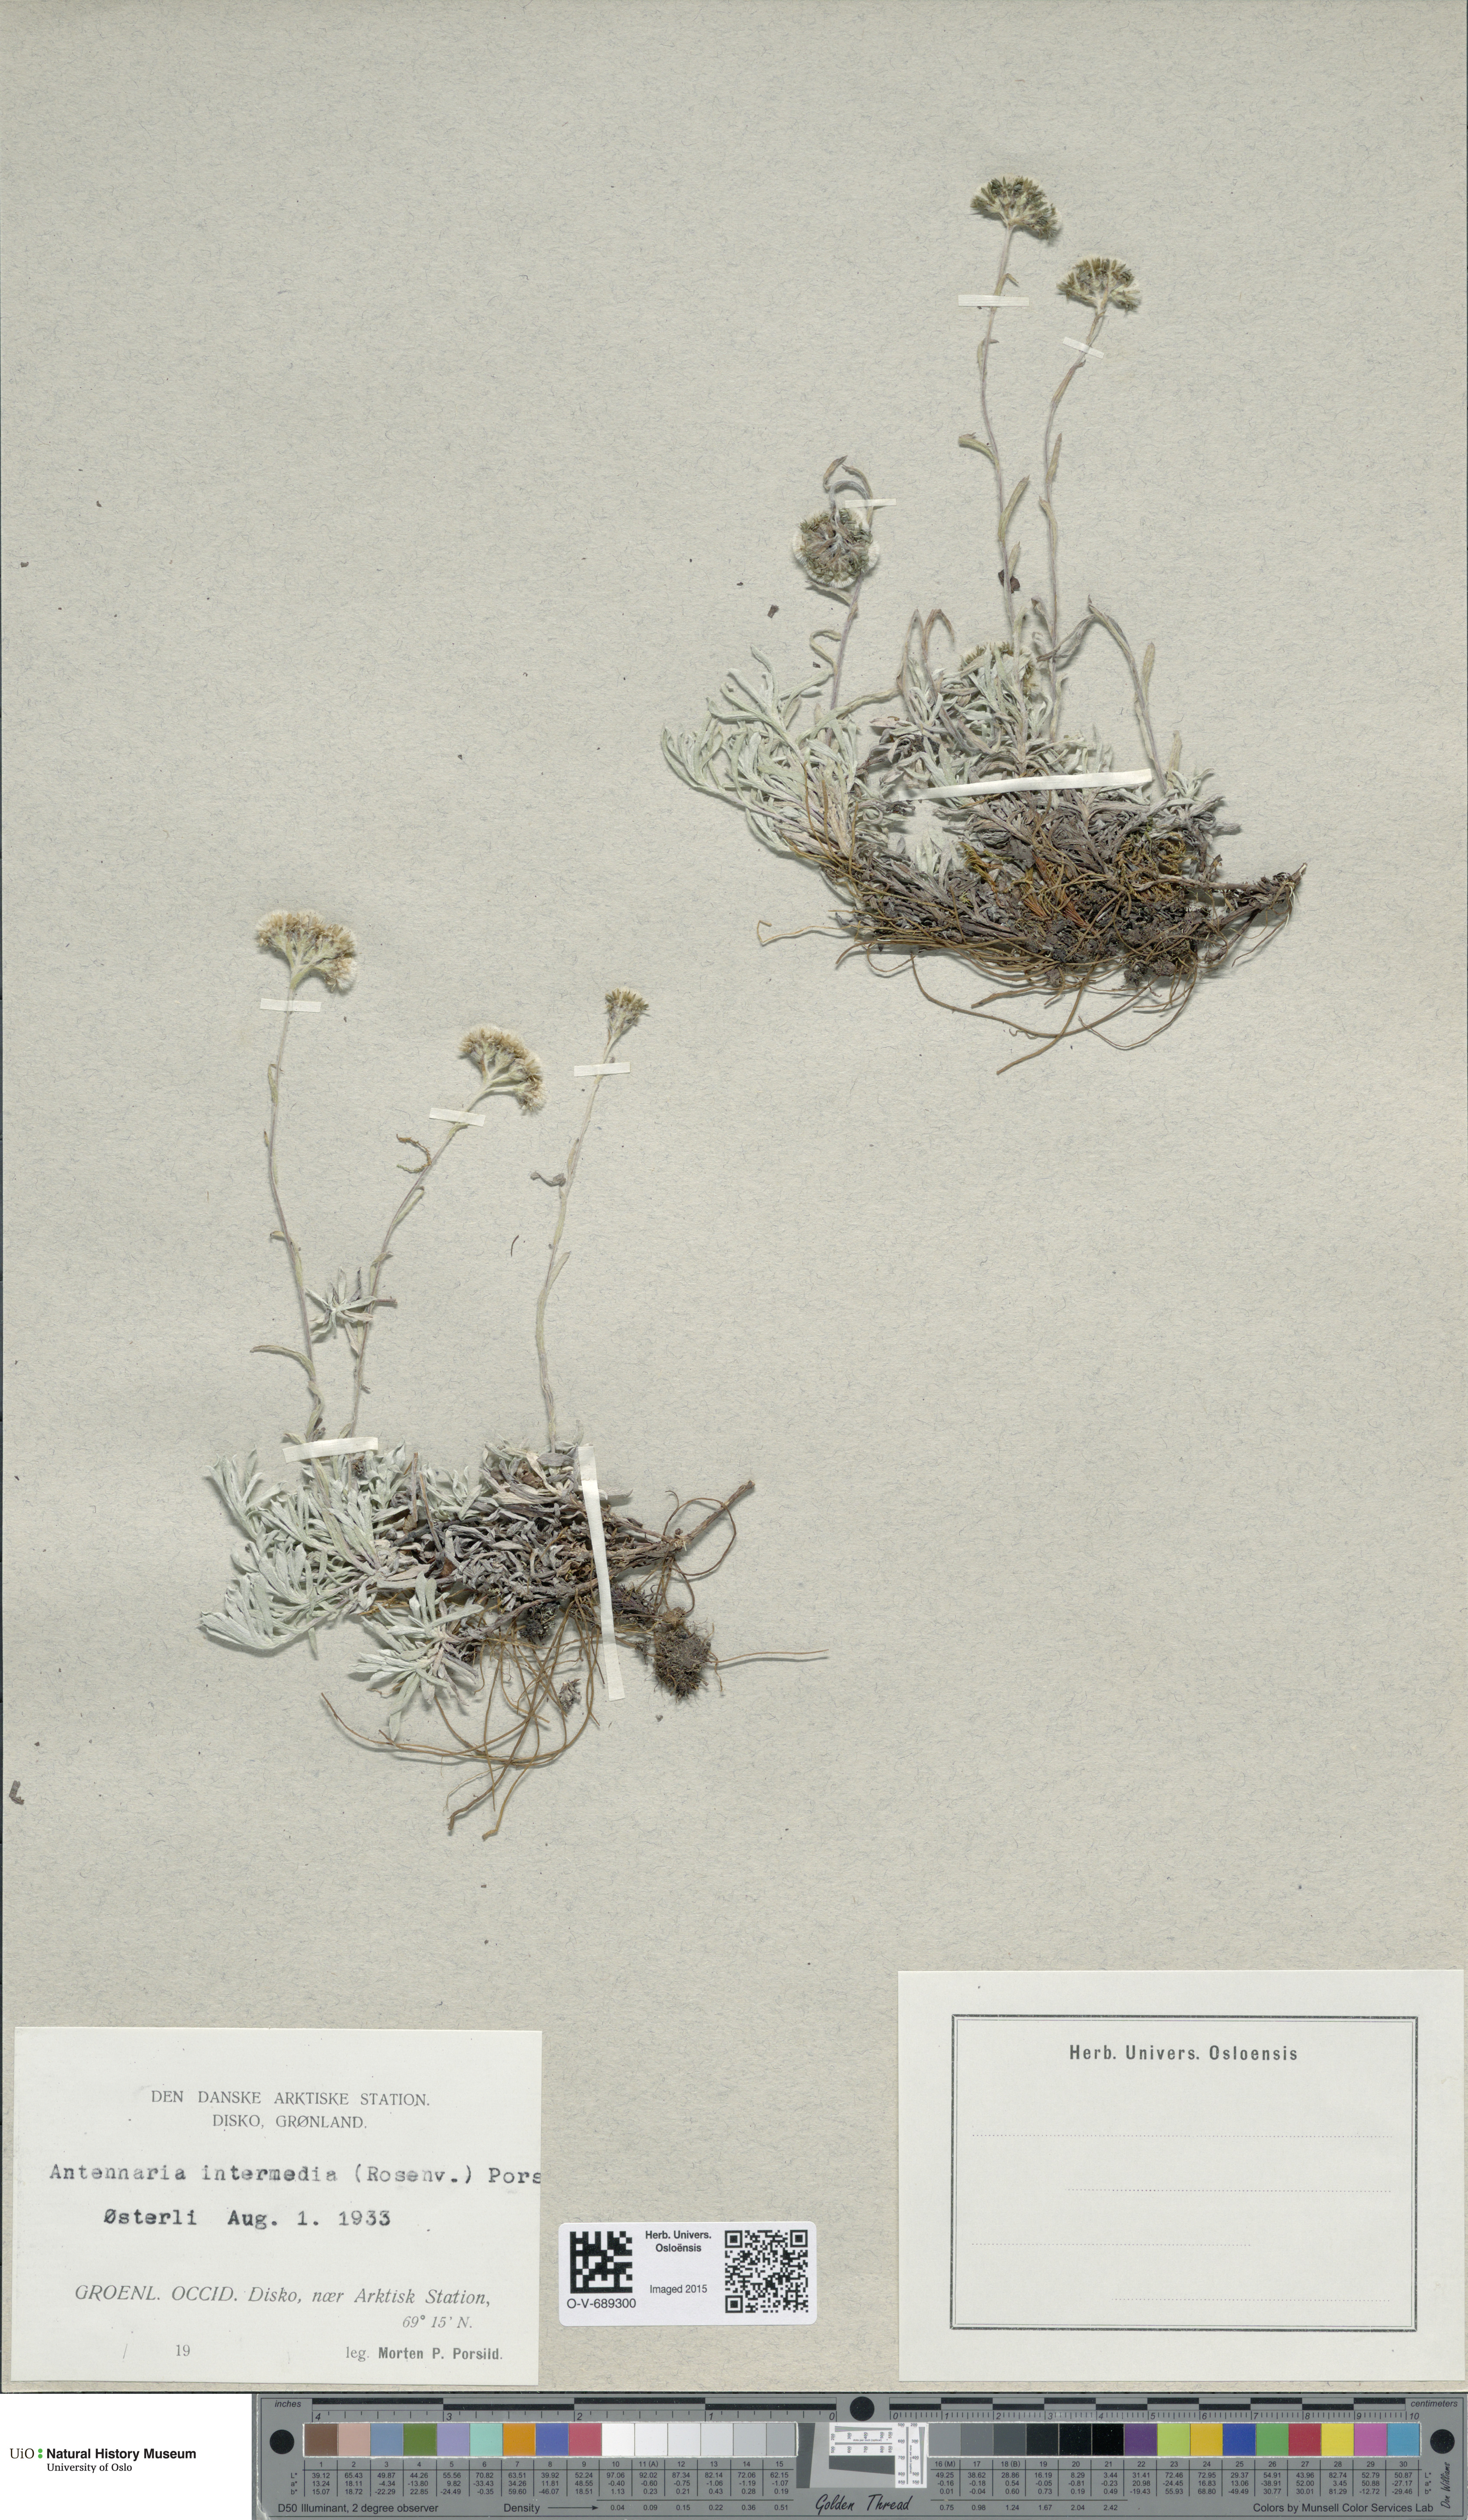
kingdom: Plantae
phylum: Tracheophyta
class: Magnoliopsida
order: Asterales
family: Asteraceae
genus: Antennaria
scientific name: Antennaria rosea
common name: Rosy pussytoes
